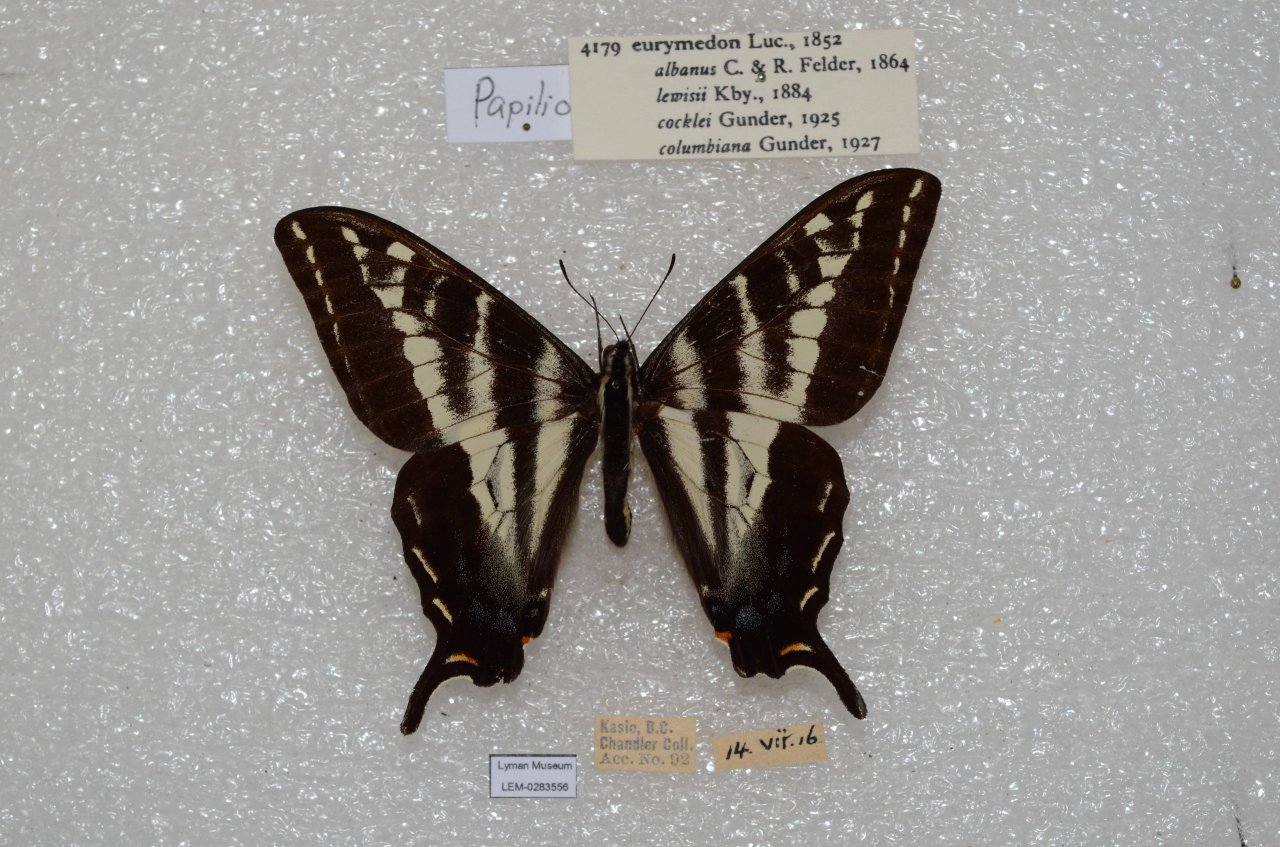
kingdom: Animalia
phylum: Arthropoda
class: Insecta
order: Lepidoptera
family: Papilionidae
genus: Pterourus
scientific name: Pterourus eurymedon
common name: Pale Swallowtail
